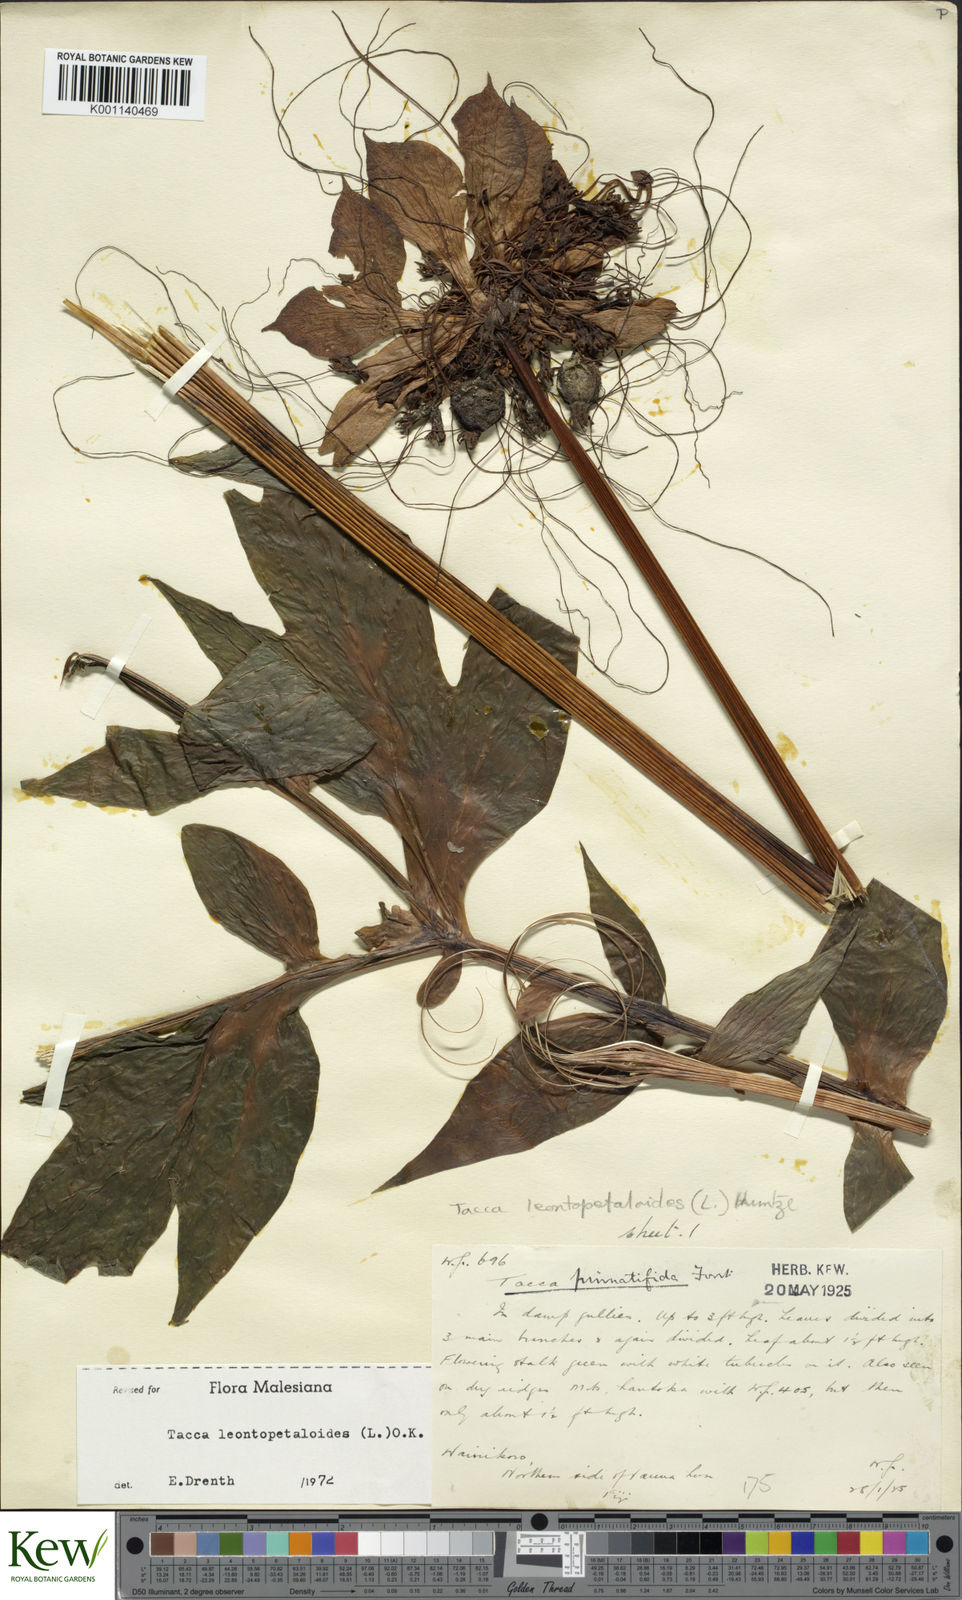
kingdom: Plantae
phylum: Tracheophyta
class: Liliopsida
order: Dioscoreales
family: Dioscoreaceae
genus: Tacca
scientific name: Tacca leontopetaloides
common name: Arrowroot
